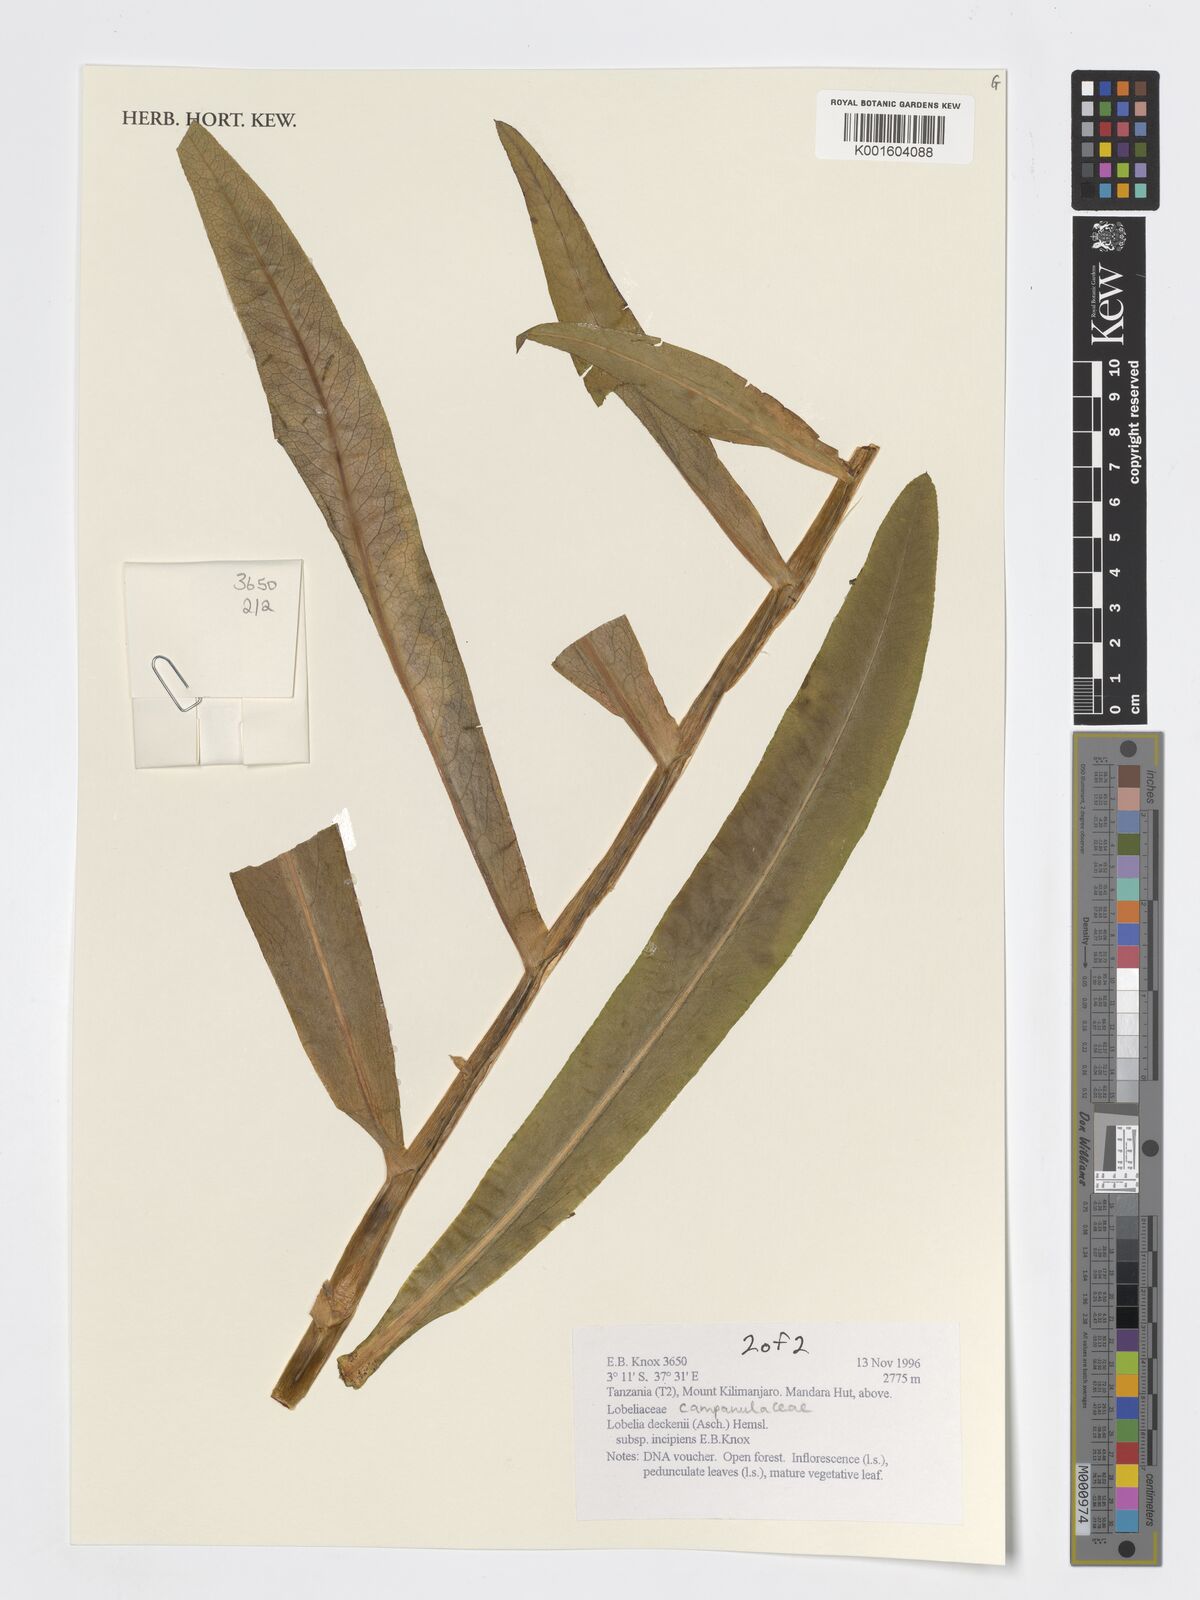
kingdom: Plantae
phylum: Tracheophyta
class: Magnoliopsida
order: Asterales
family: Campanulaceae
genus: Lobelia
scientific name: Lobelia deckenii
